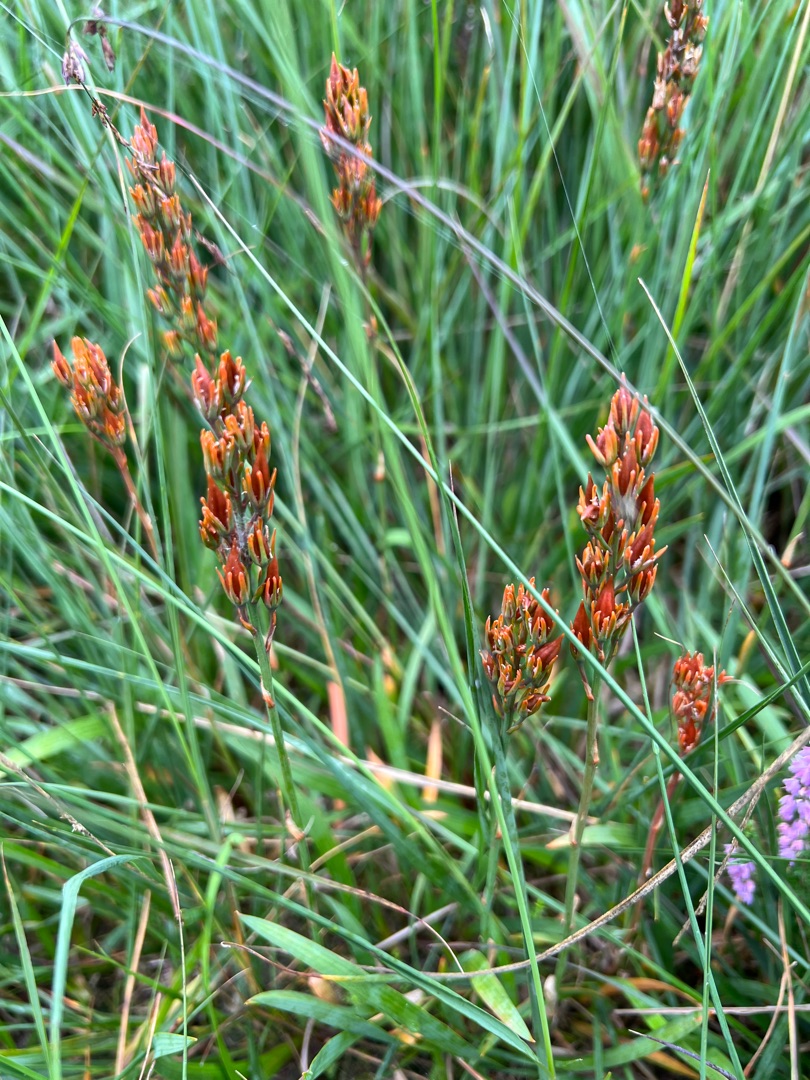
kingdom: Plantae
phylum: Tracheophyta
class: Liliopsida
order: Dioscoreales
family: Nartheciaceae
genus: Narthecium
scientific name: Narthecium ossifragum
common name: Benbræk
